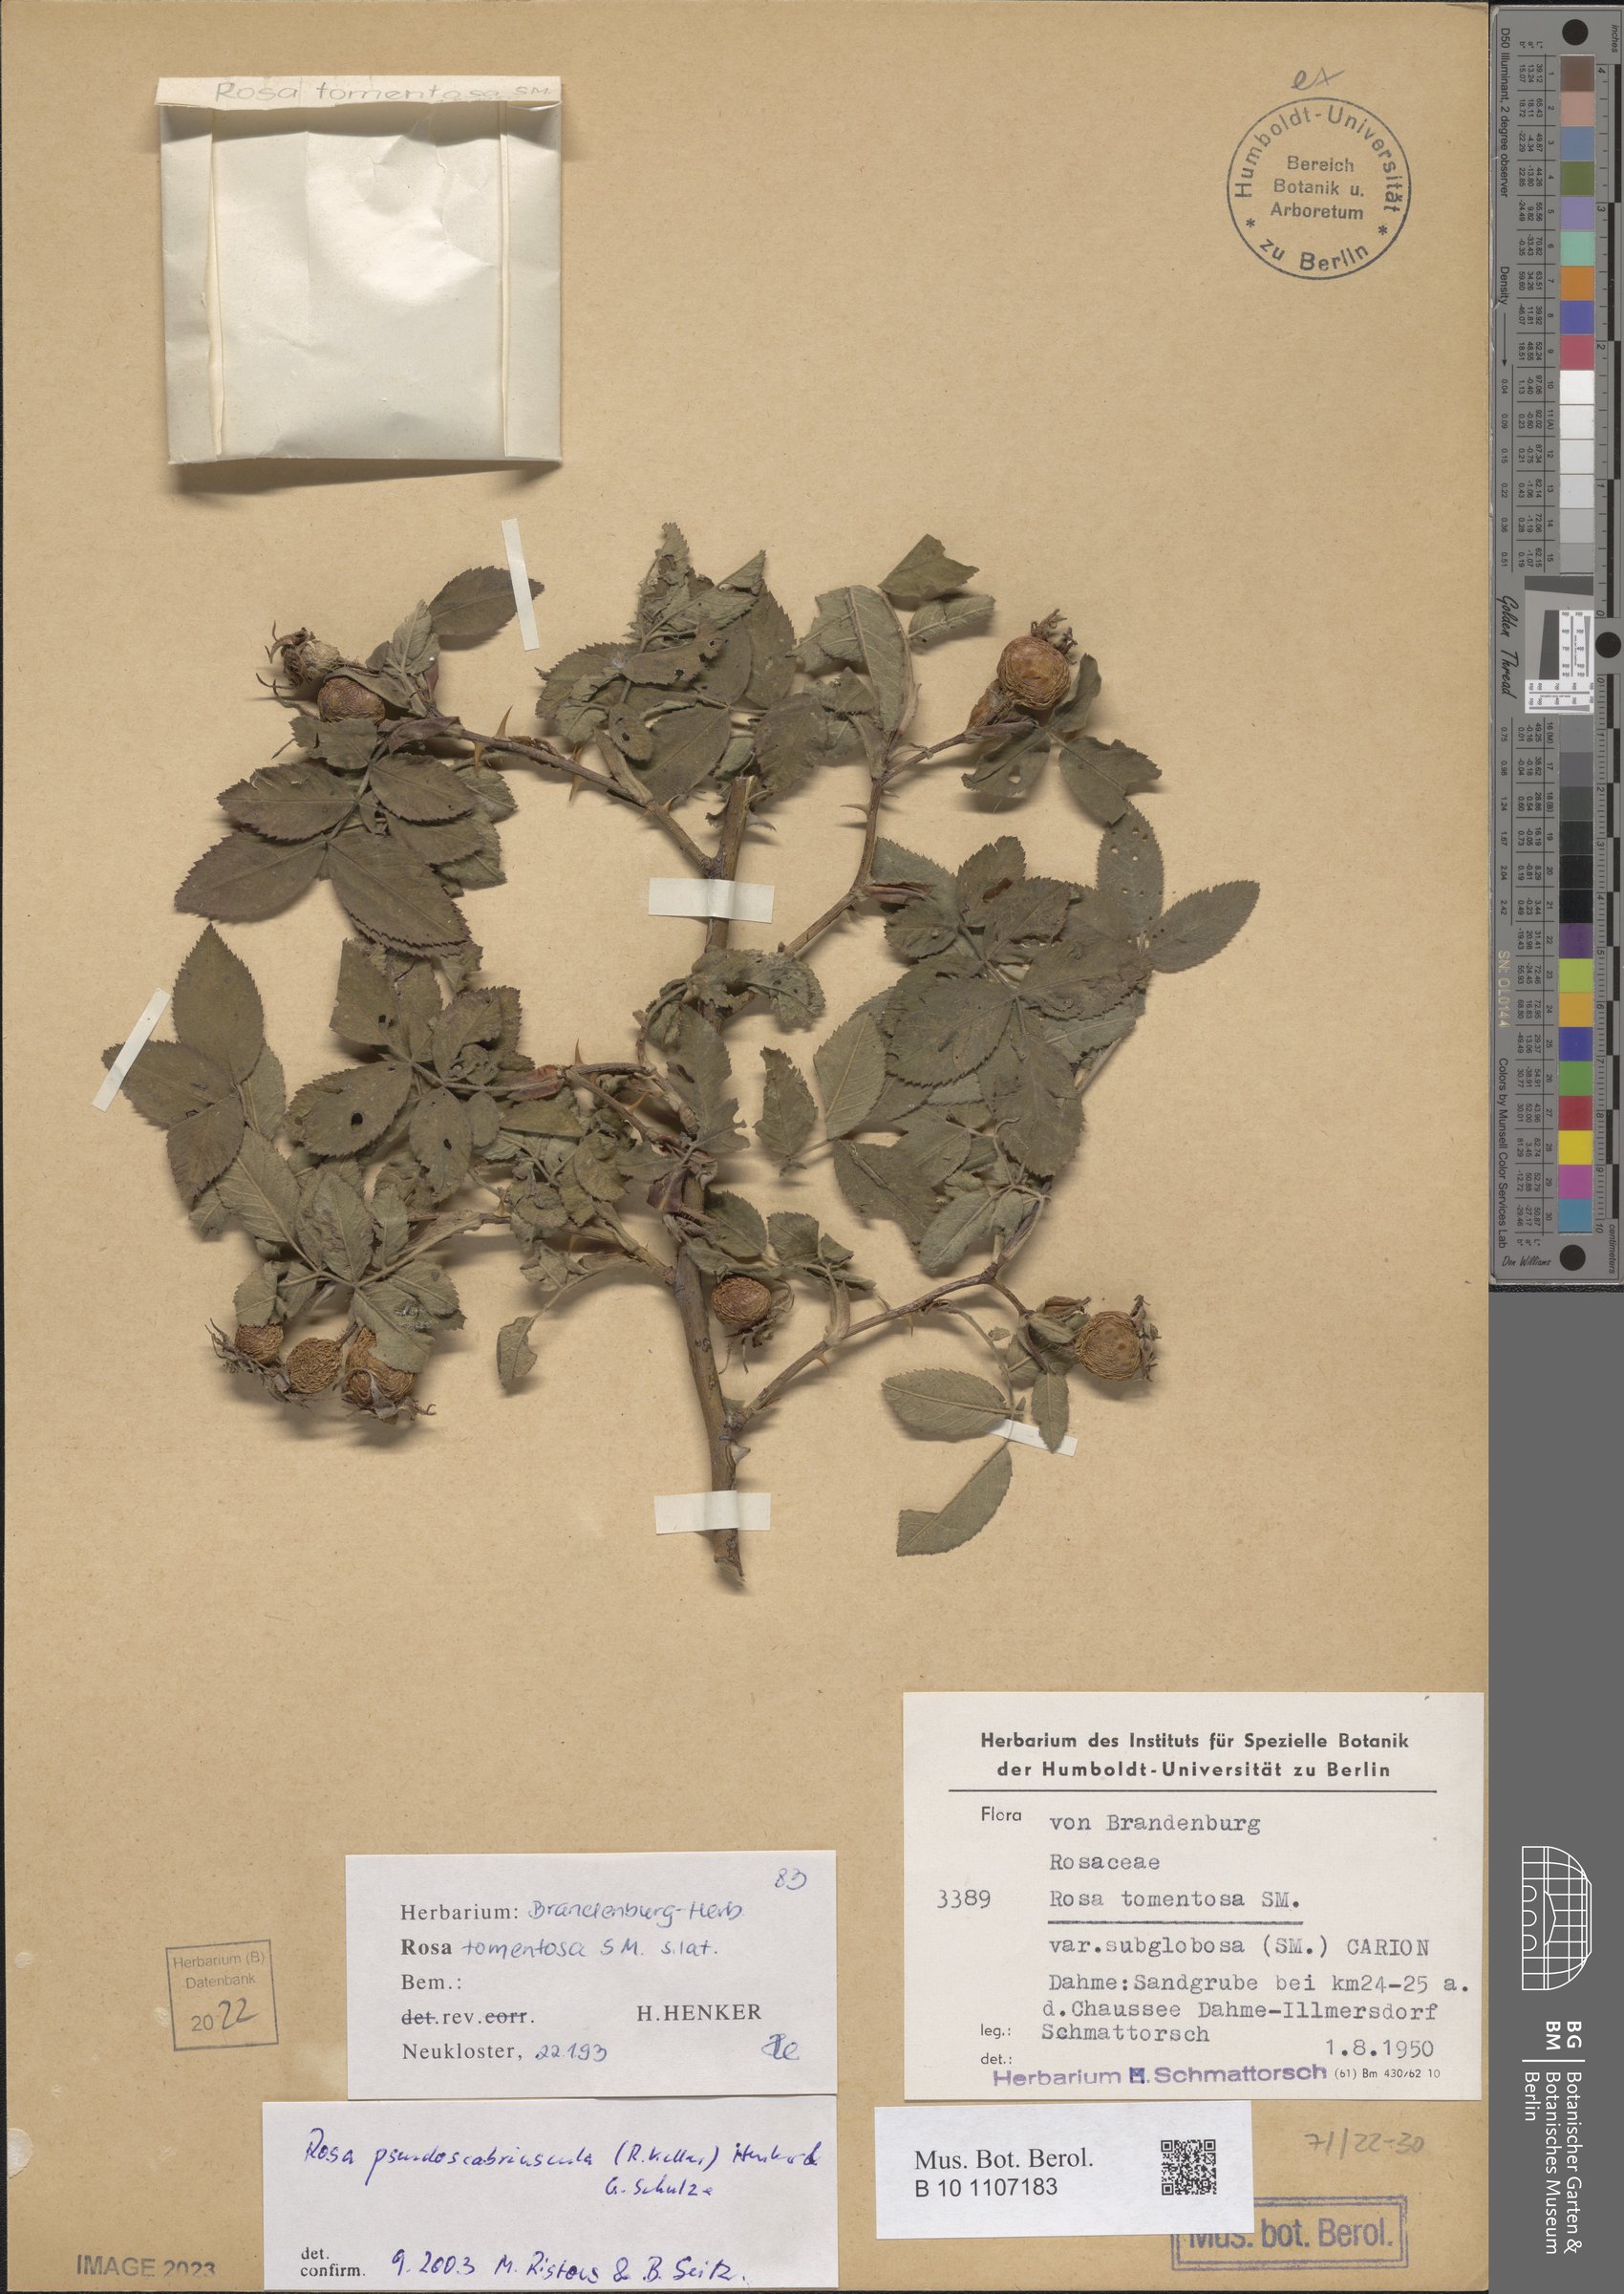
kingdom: Plantae
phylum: Tracheophyta
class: Magnoliopsida
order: Rosales
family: Rosaceae
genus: Rosa
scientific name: Rosa pseudoscabriuscula
